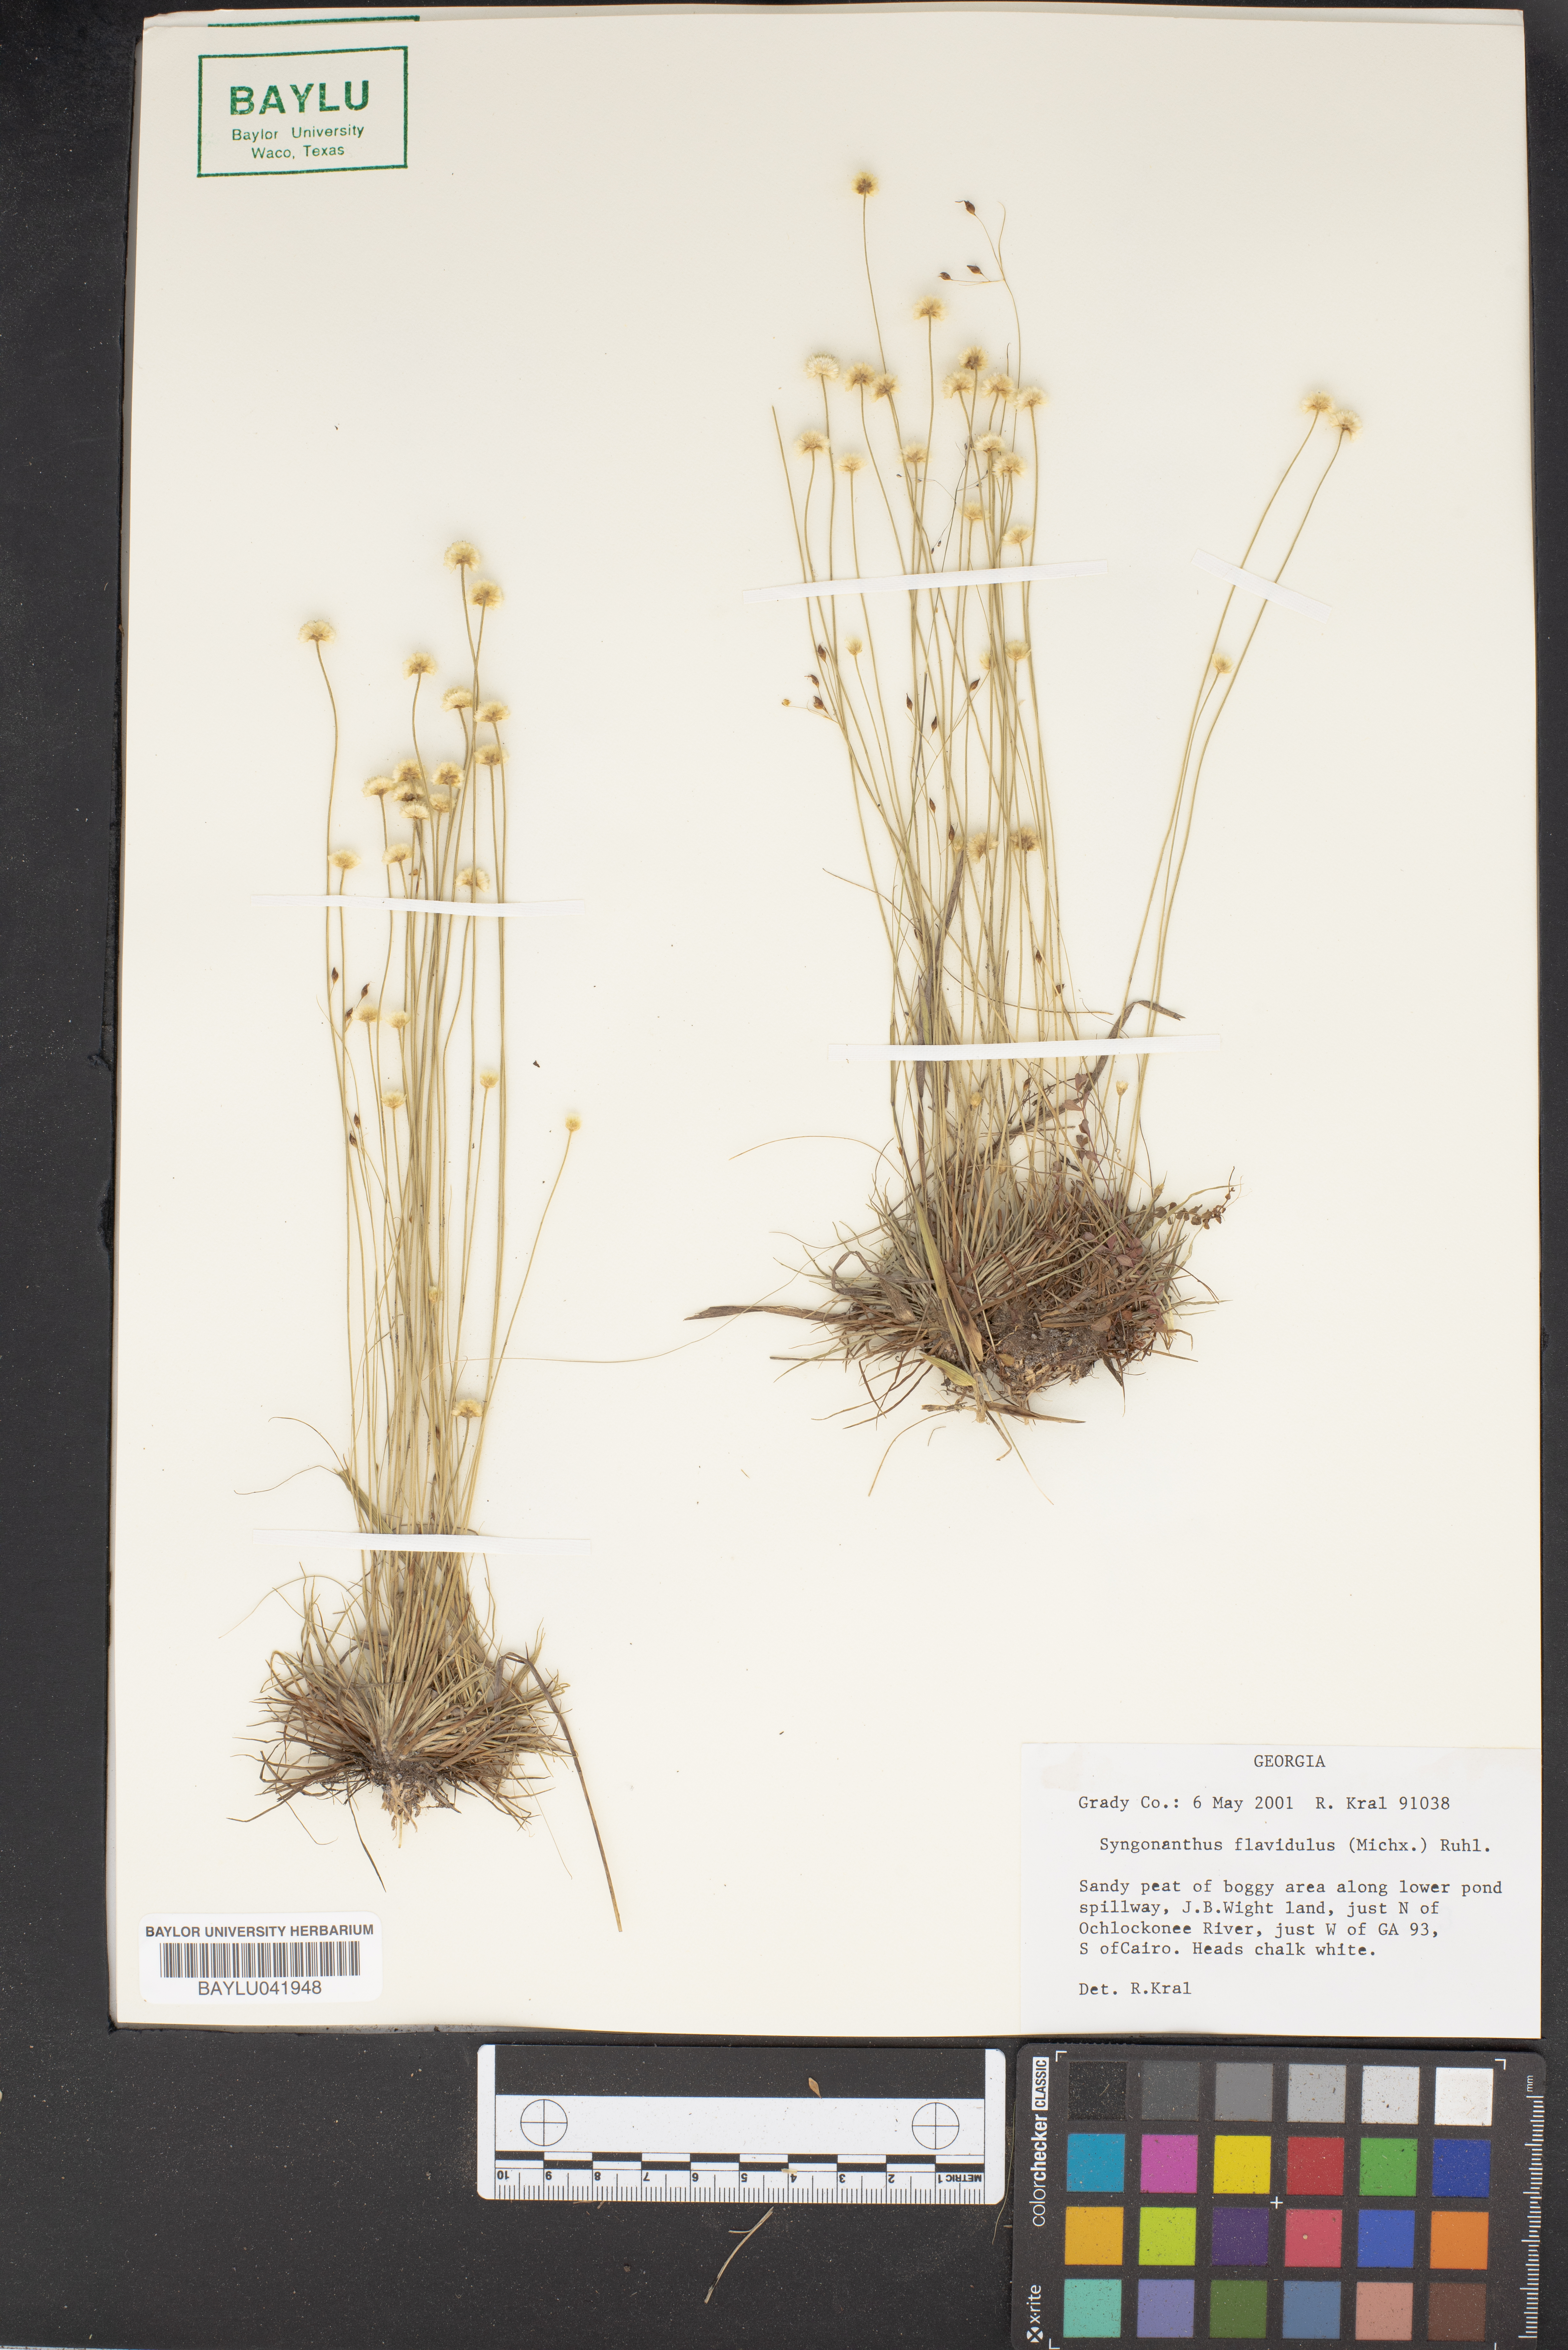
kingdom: Plantae
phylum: Tracheophyta
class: Liliopsida
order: Poales
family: Eriocaulaceae
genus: Syngonanthus
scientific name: Syngonanthus flavidulus
